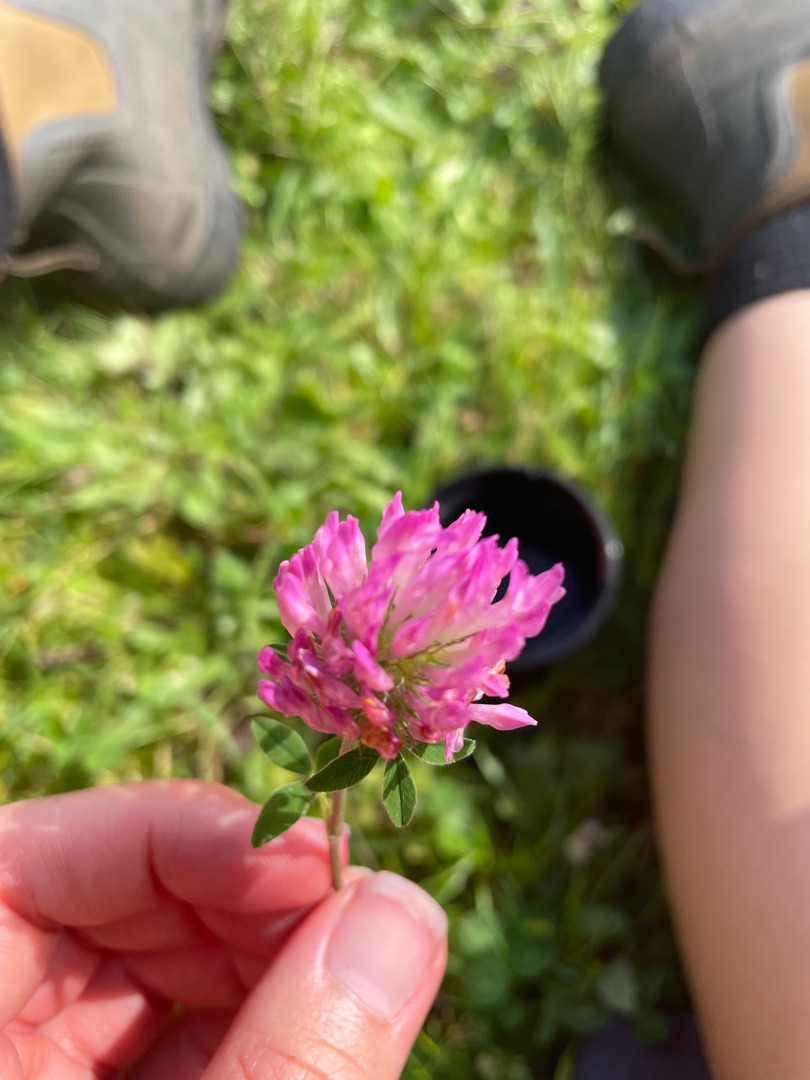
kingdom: Plantae
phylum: Tracheophyta
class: Magnoliopsida
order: Fabales
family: Fabaceae
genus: Trifolium
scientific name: Trifolium pratense
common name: Rød-kløver
